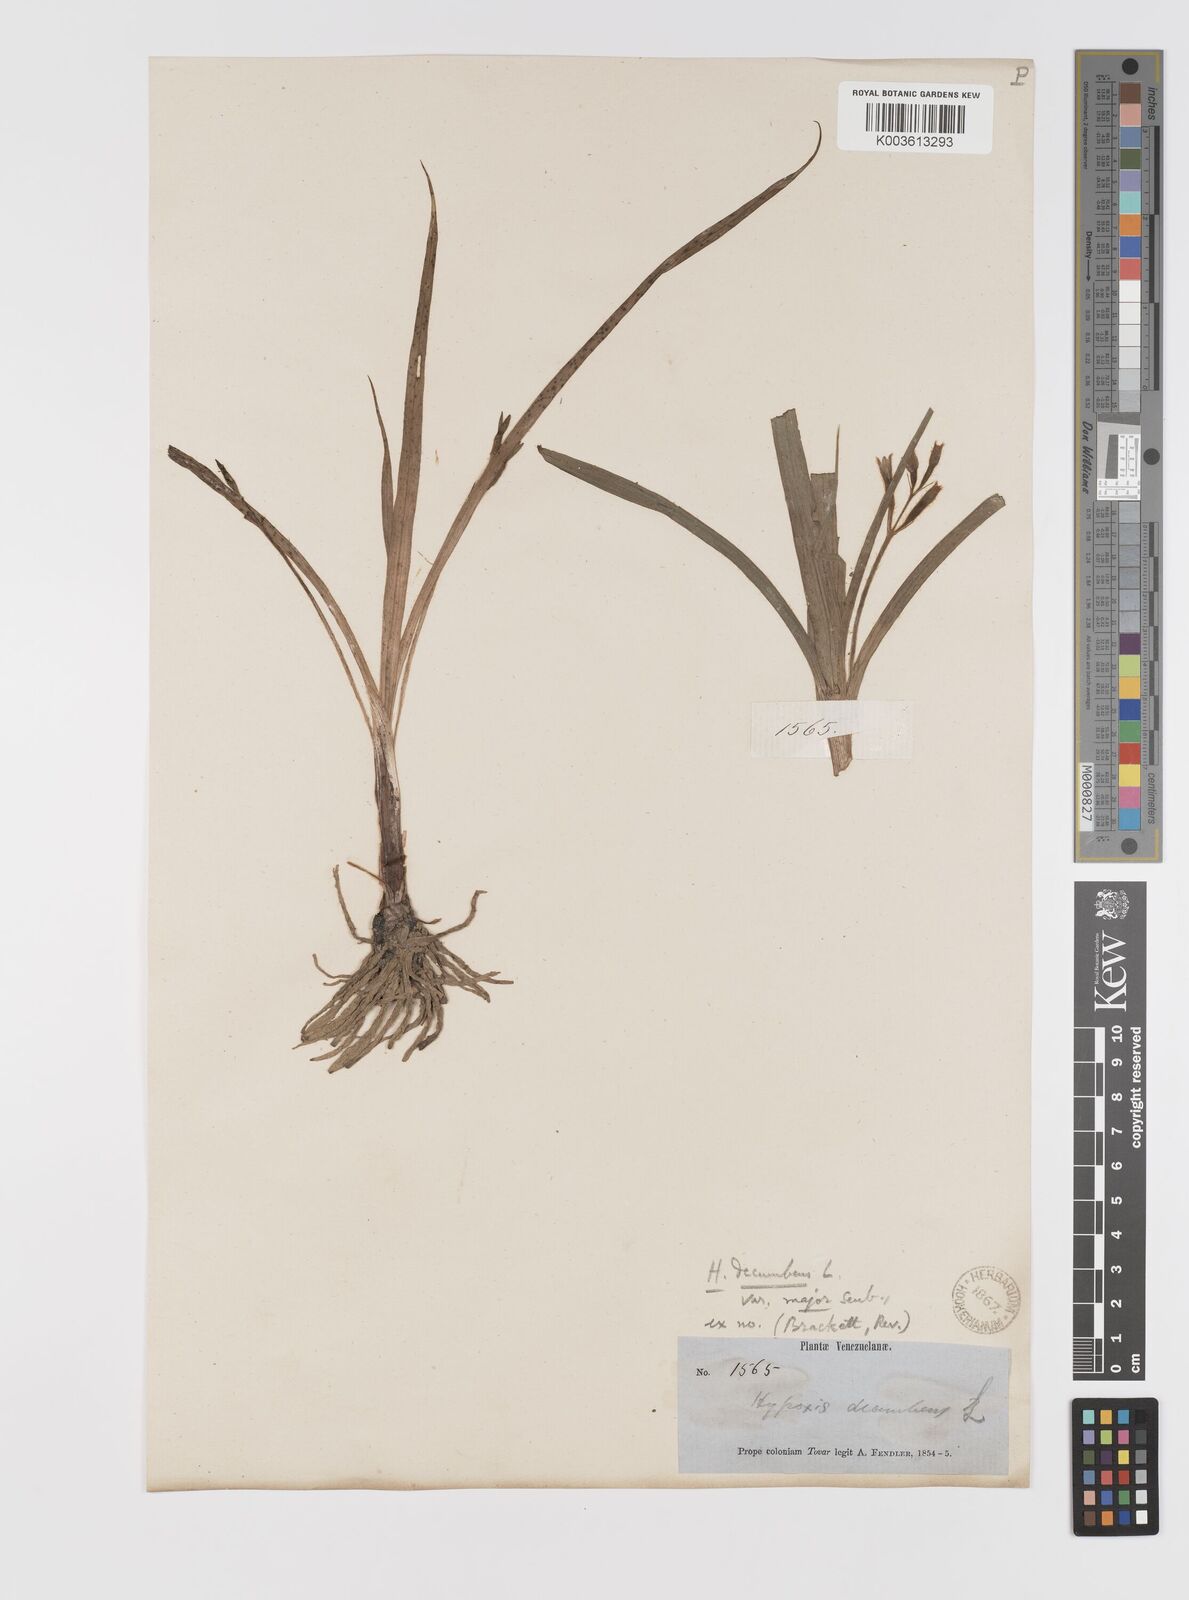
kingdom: Plantae
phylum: Tracheophyta
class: Liliopsida
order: Asparagales
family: Hypoxidaceae
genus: Hypoxis
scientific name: Hypoxis decumbens
